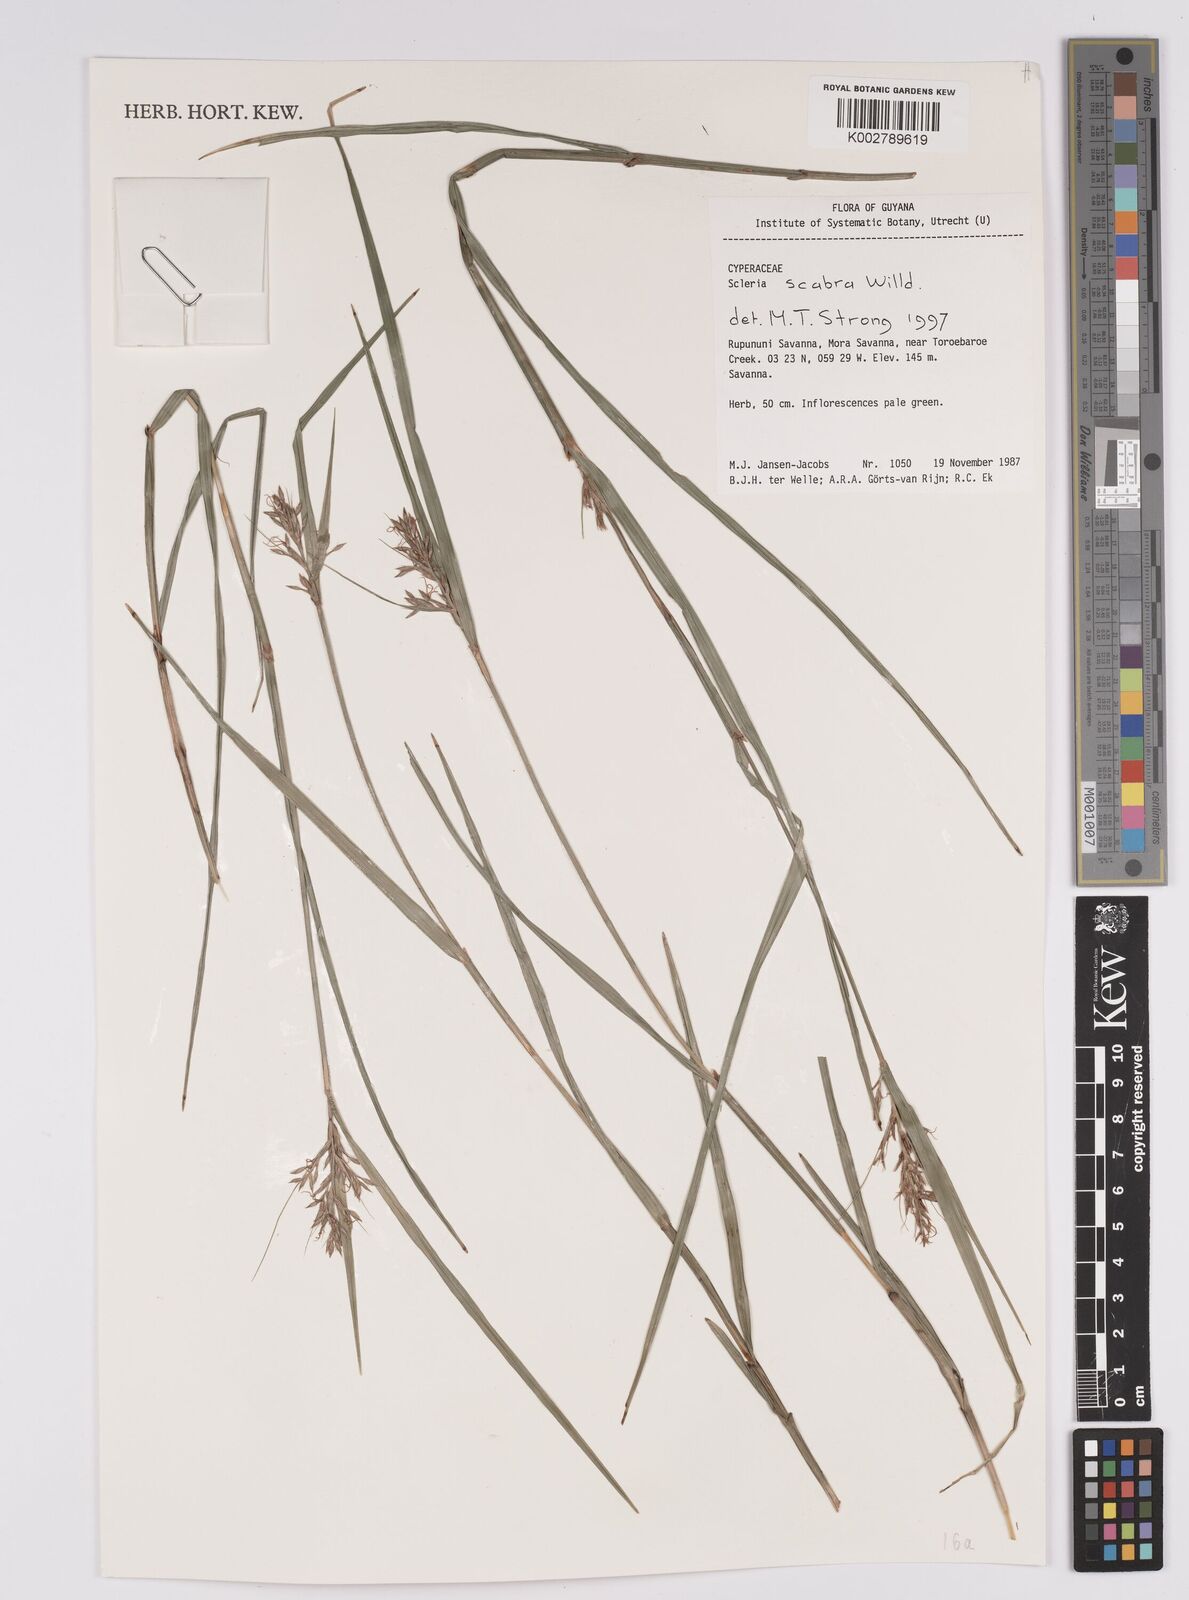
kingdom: Plantae
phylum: Tracheophyta
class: Liliopsida
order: Poales
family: Cyperaceae
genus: Scleria
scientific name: Scleria scabra
